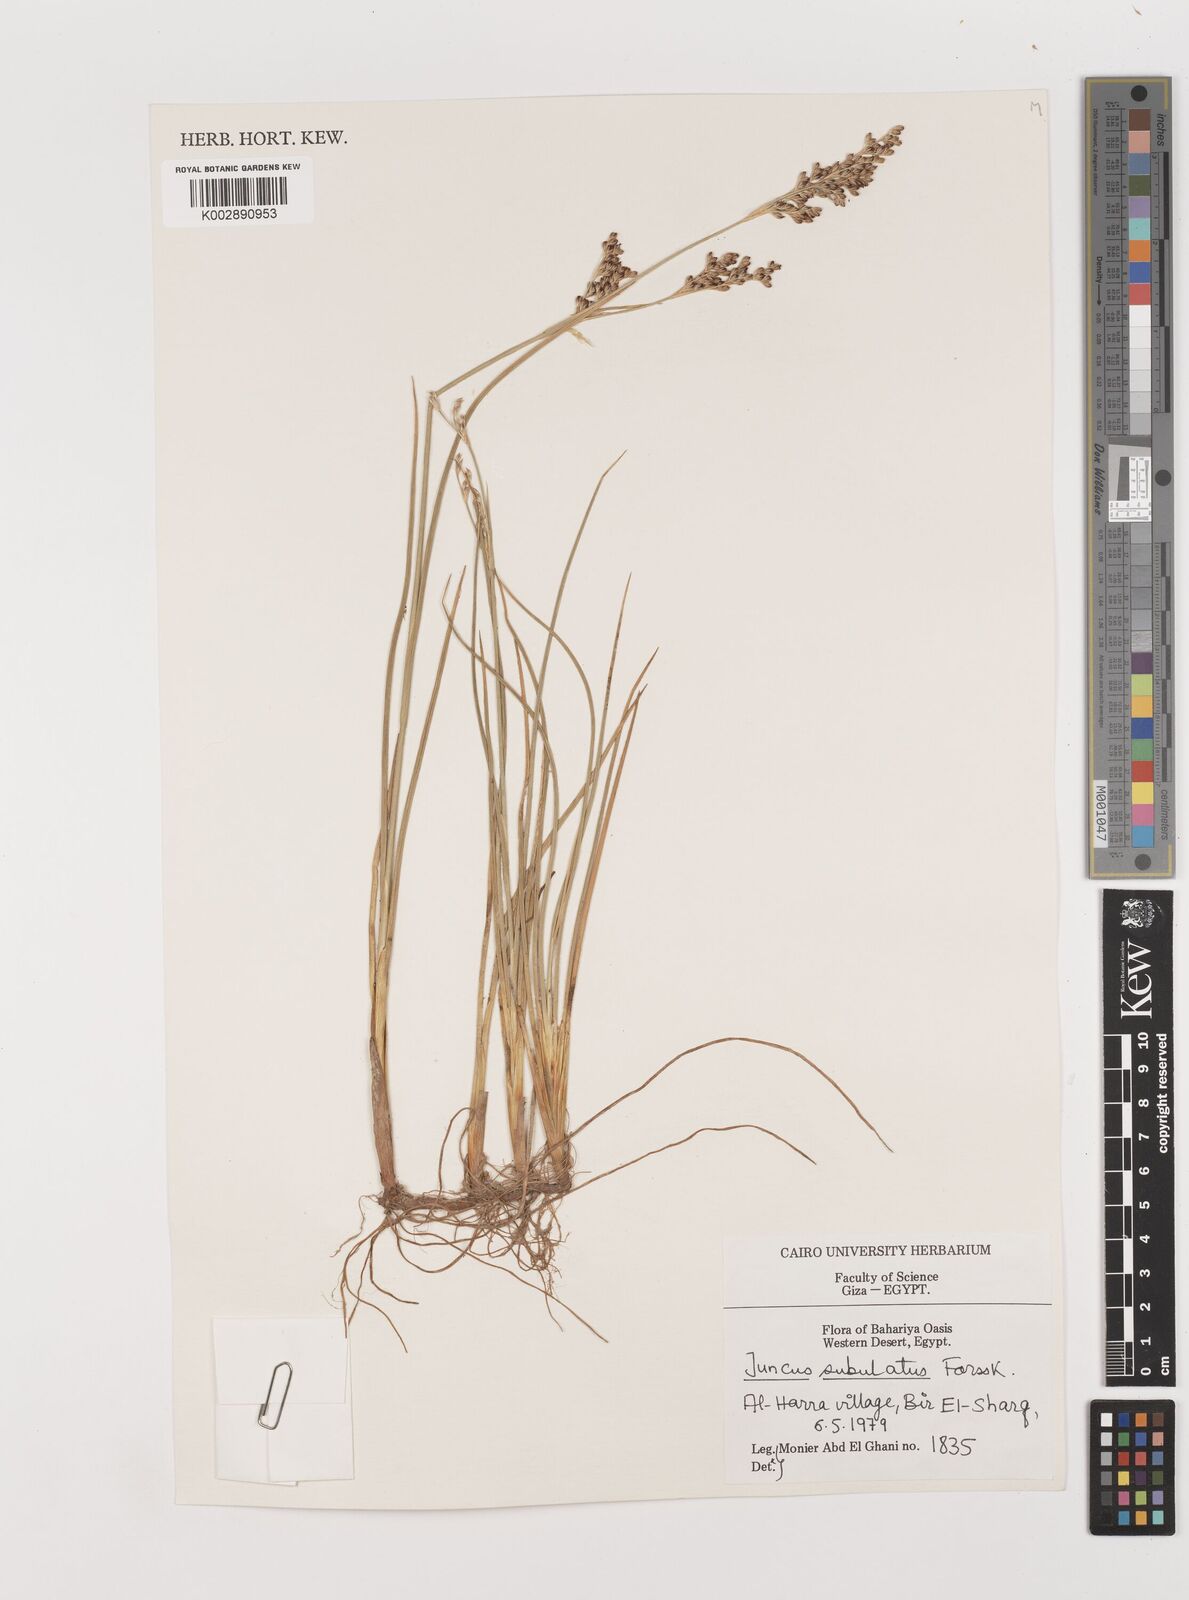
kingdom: Plantae
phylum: Tracheophyta
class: Liliopsida
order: Poales
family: Juncaceae
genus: Juncus
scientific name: Juncus subulatus
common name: Somerset rush
